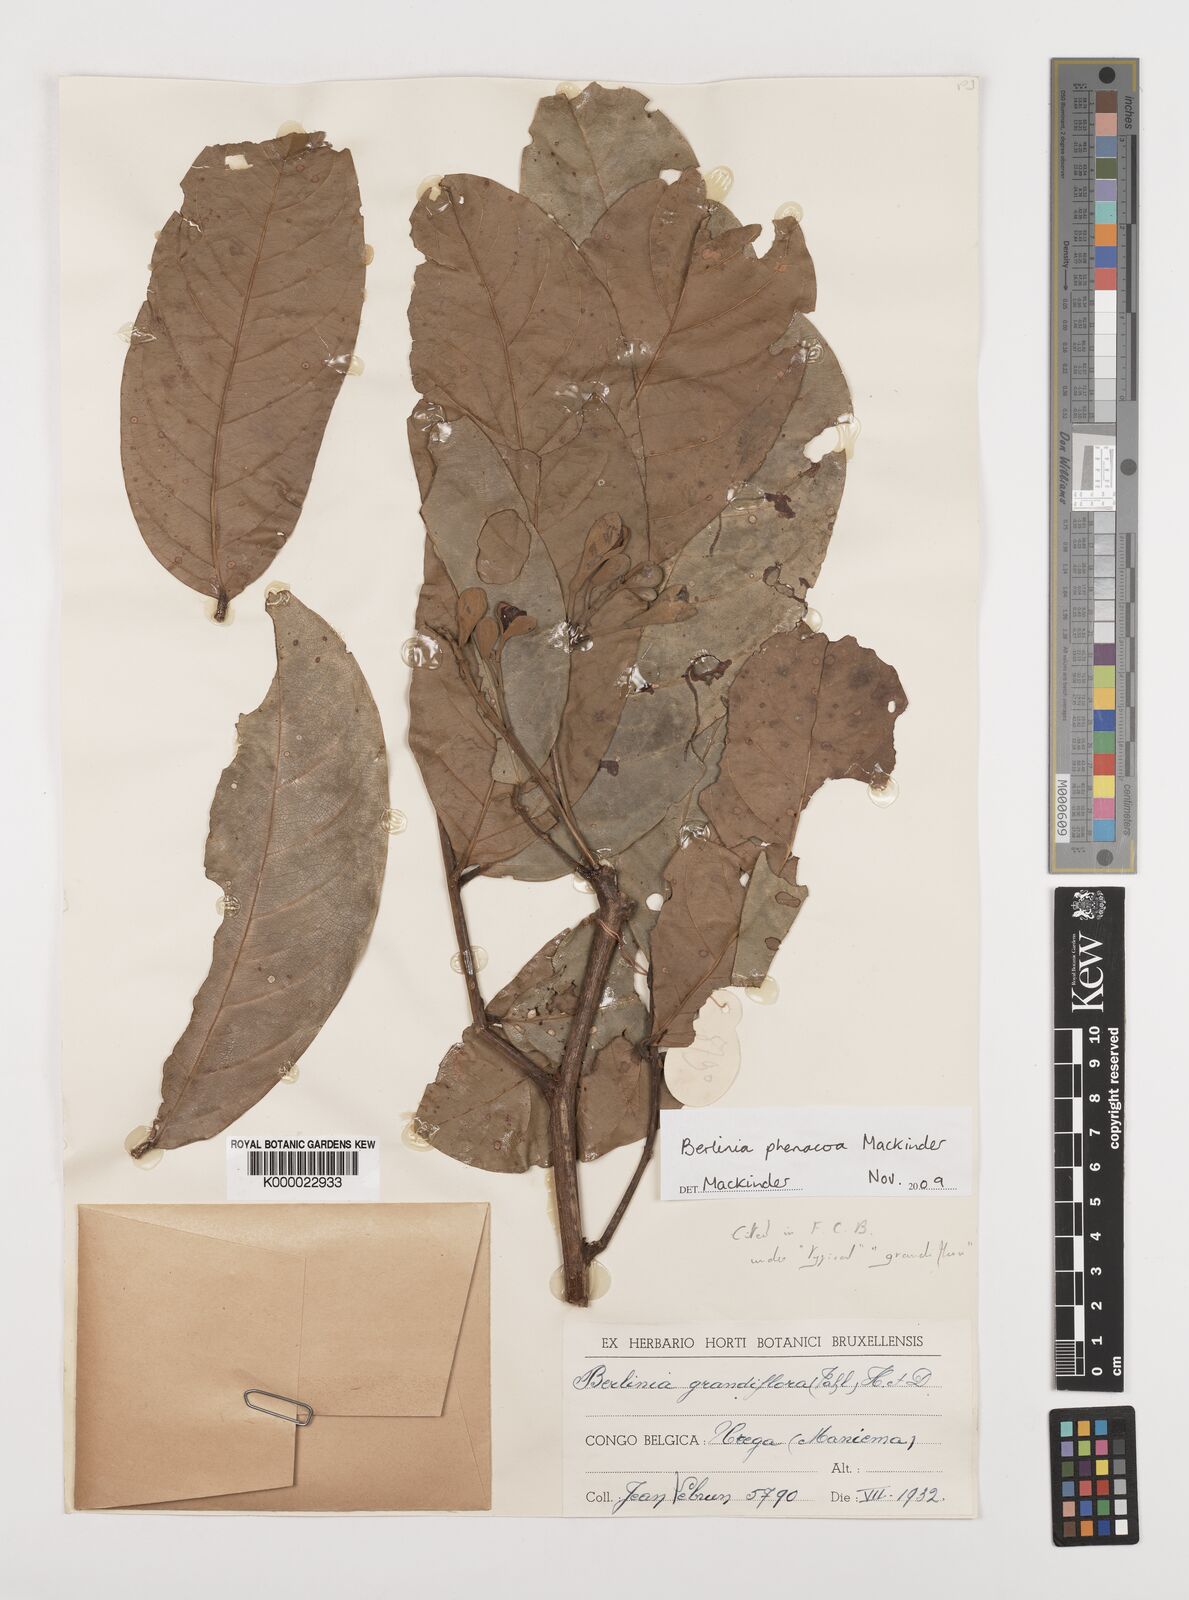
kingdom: Plantae
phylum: Tracheophyta
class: Magnoliopsida
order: Fabales
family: Fabaceae
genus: Berlinia
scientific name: Berlinia phenacoa
